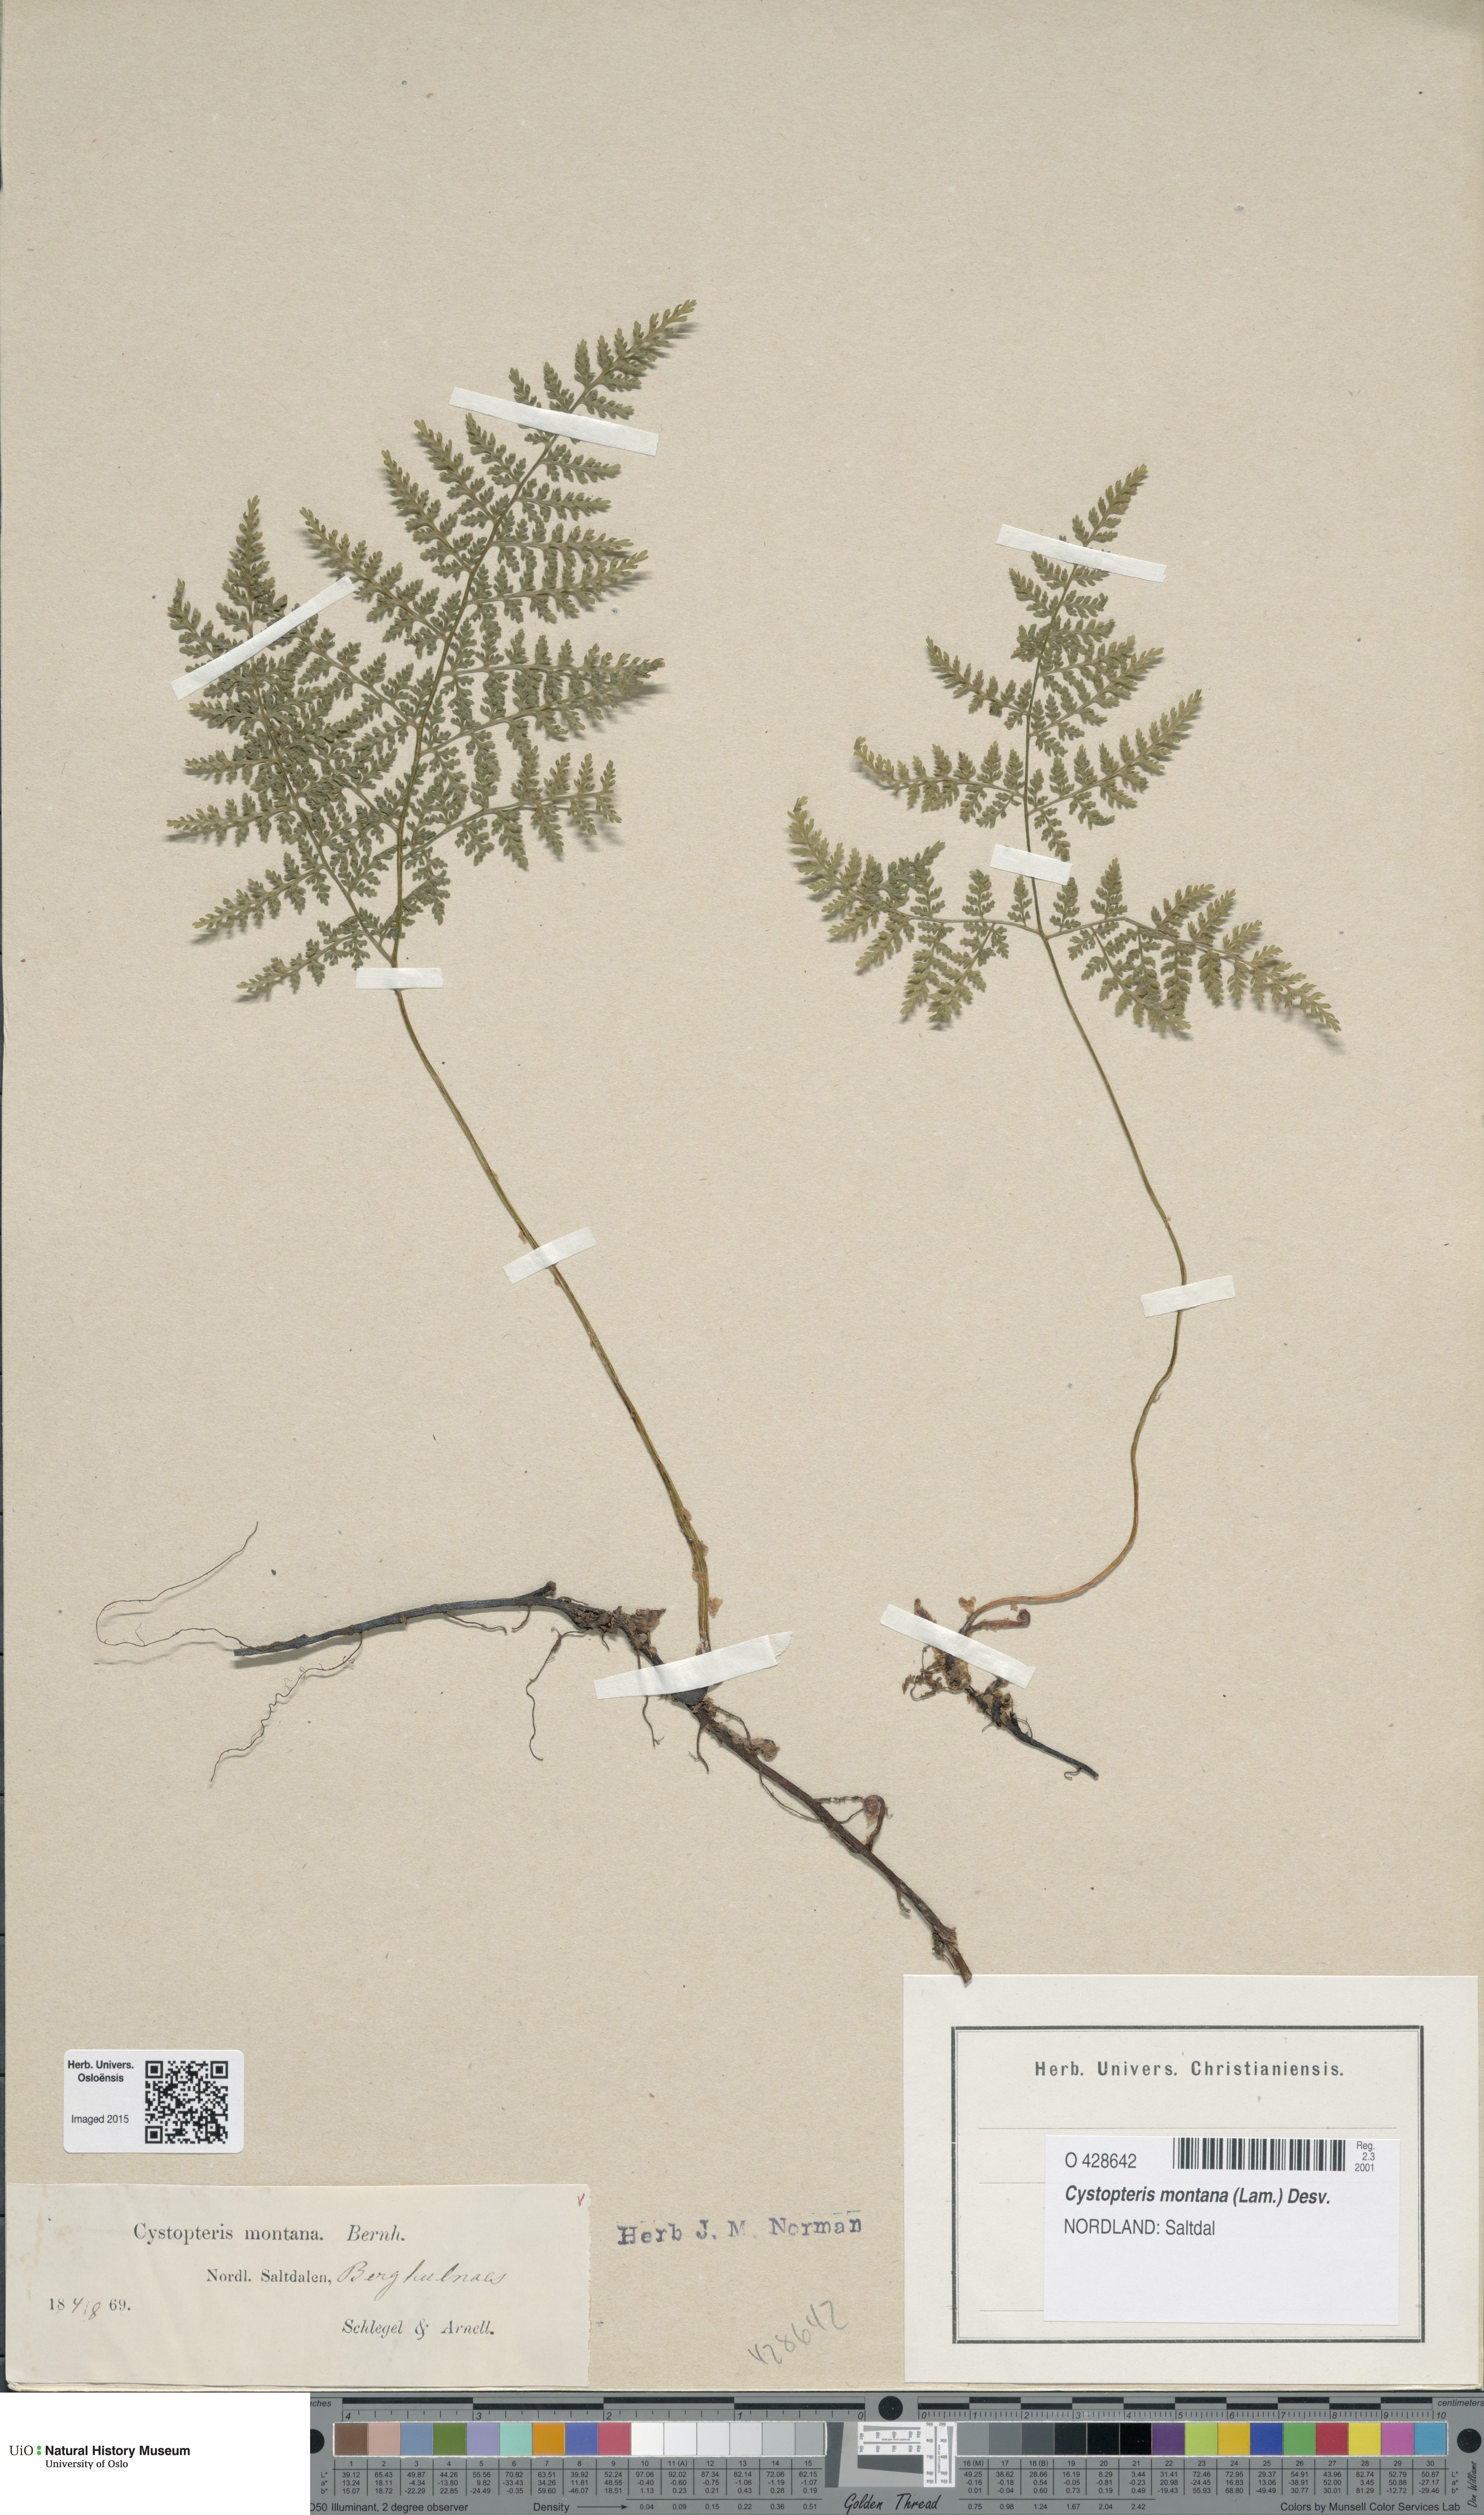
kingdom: Plantae
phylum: Tracheophyta
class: Polypodiopsida
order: Polypodiales
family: Cystopteridaceae
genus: Cystopteris
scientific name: Cystopteris montana
